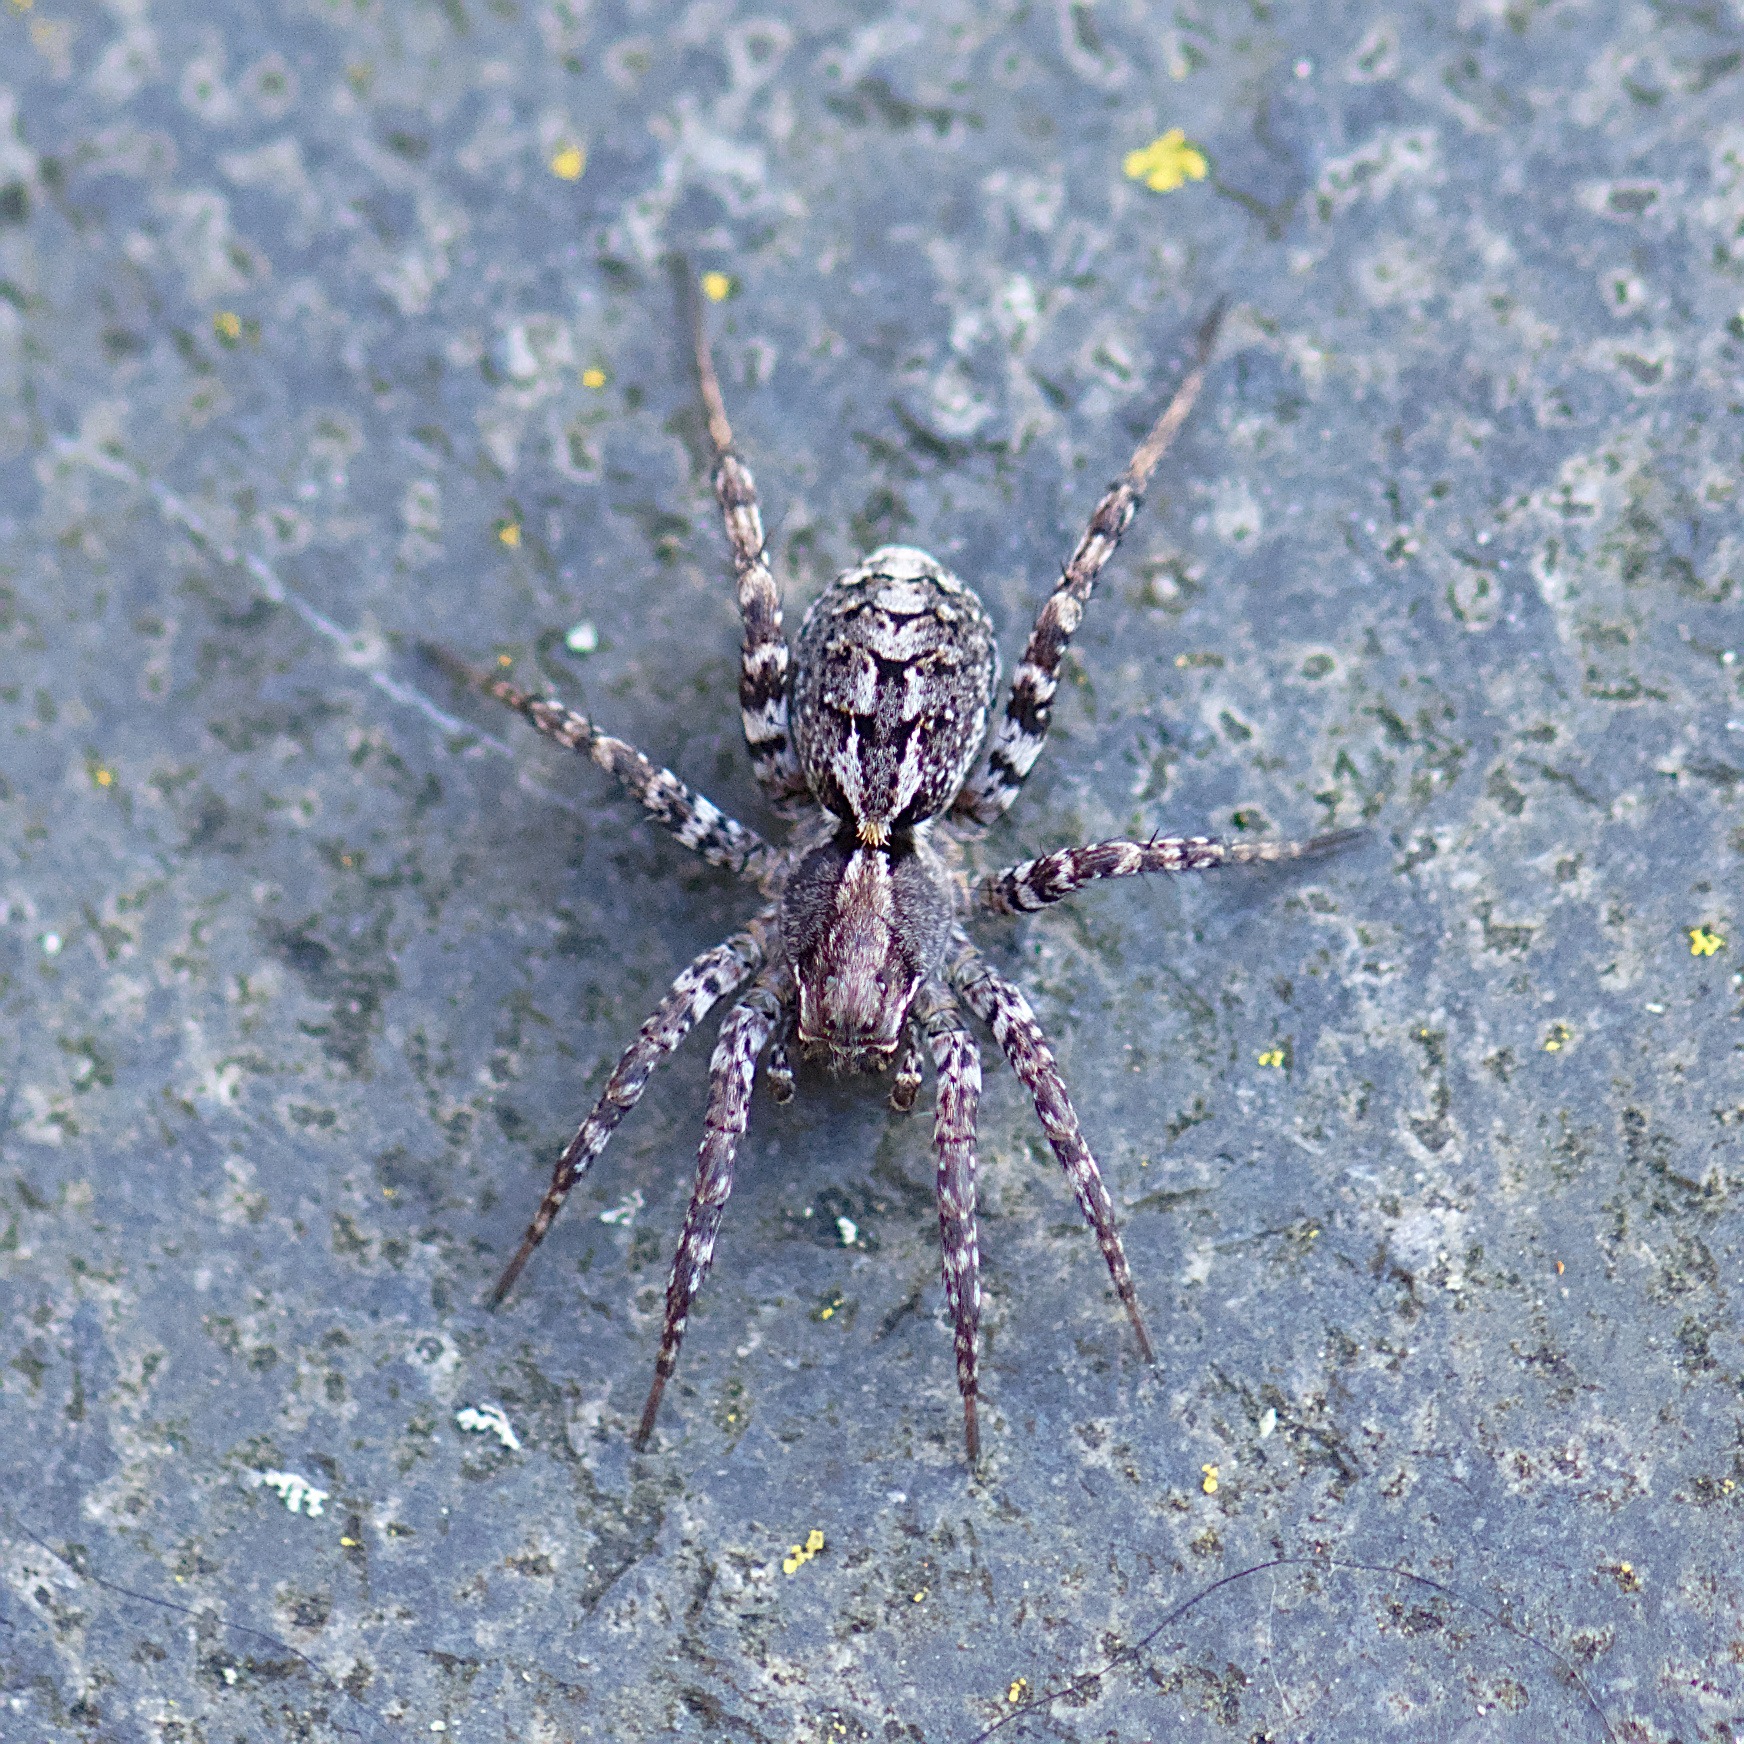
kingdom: Animalia
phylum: Arthropoda
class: Arachnida
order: Araneae
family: Lycosidae
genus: Alopecosa
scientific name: Alopecosa barbipes
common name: Klitkæmpejæger
